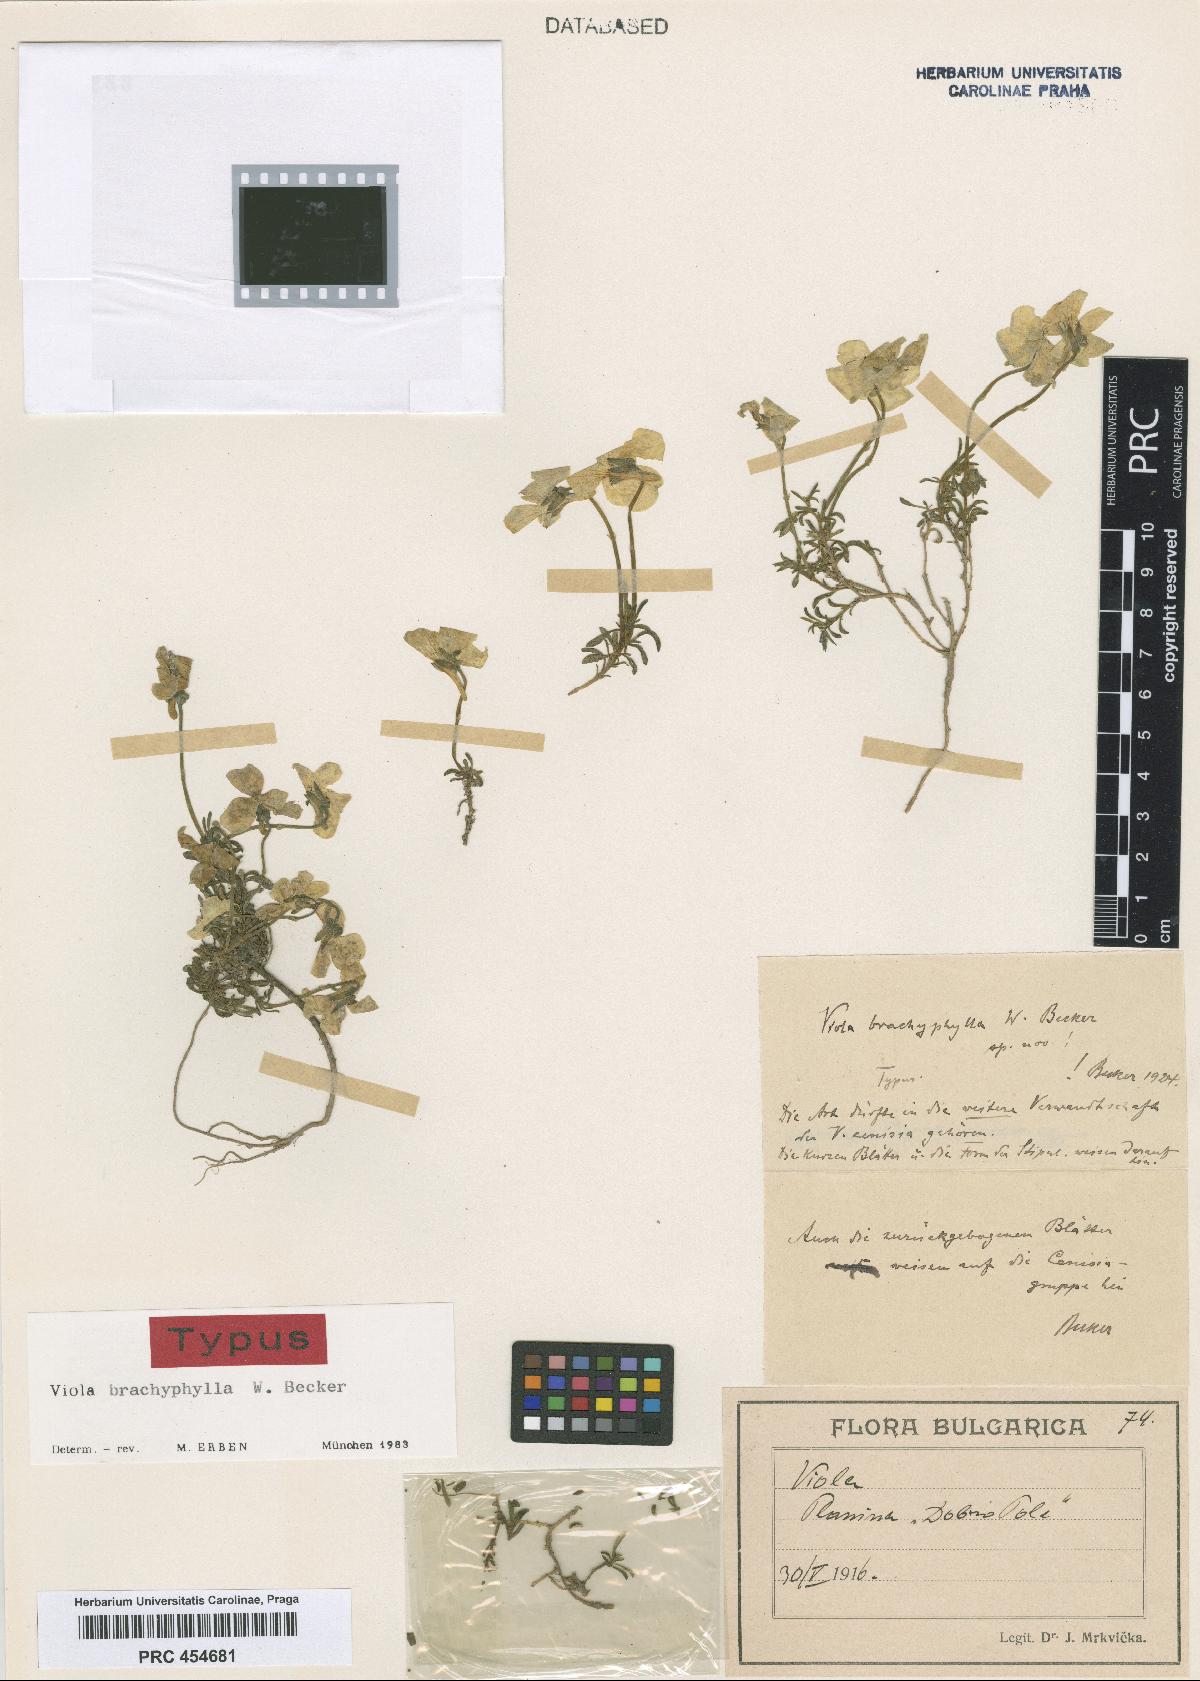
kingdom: Plantae
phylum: Tracheophyta
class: Magnoliopsida
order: Malpighiales
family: Violaceae
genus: Viola
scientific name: Viola brachyphylla
